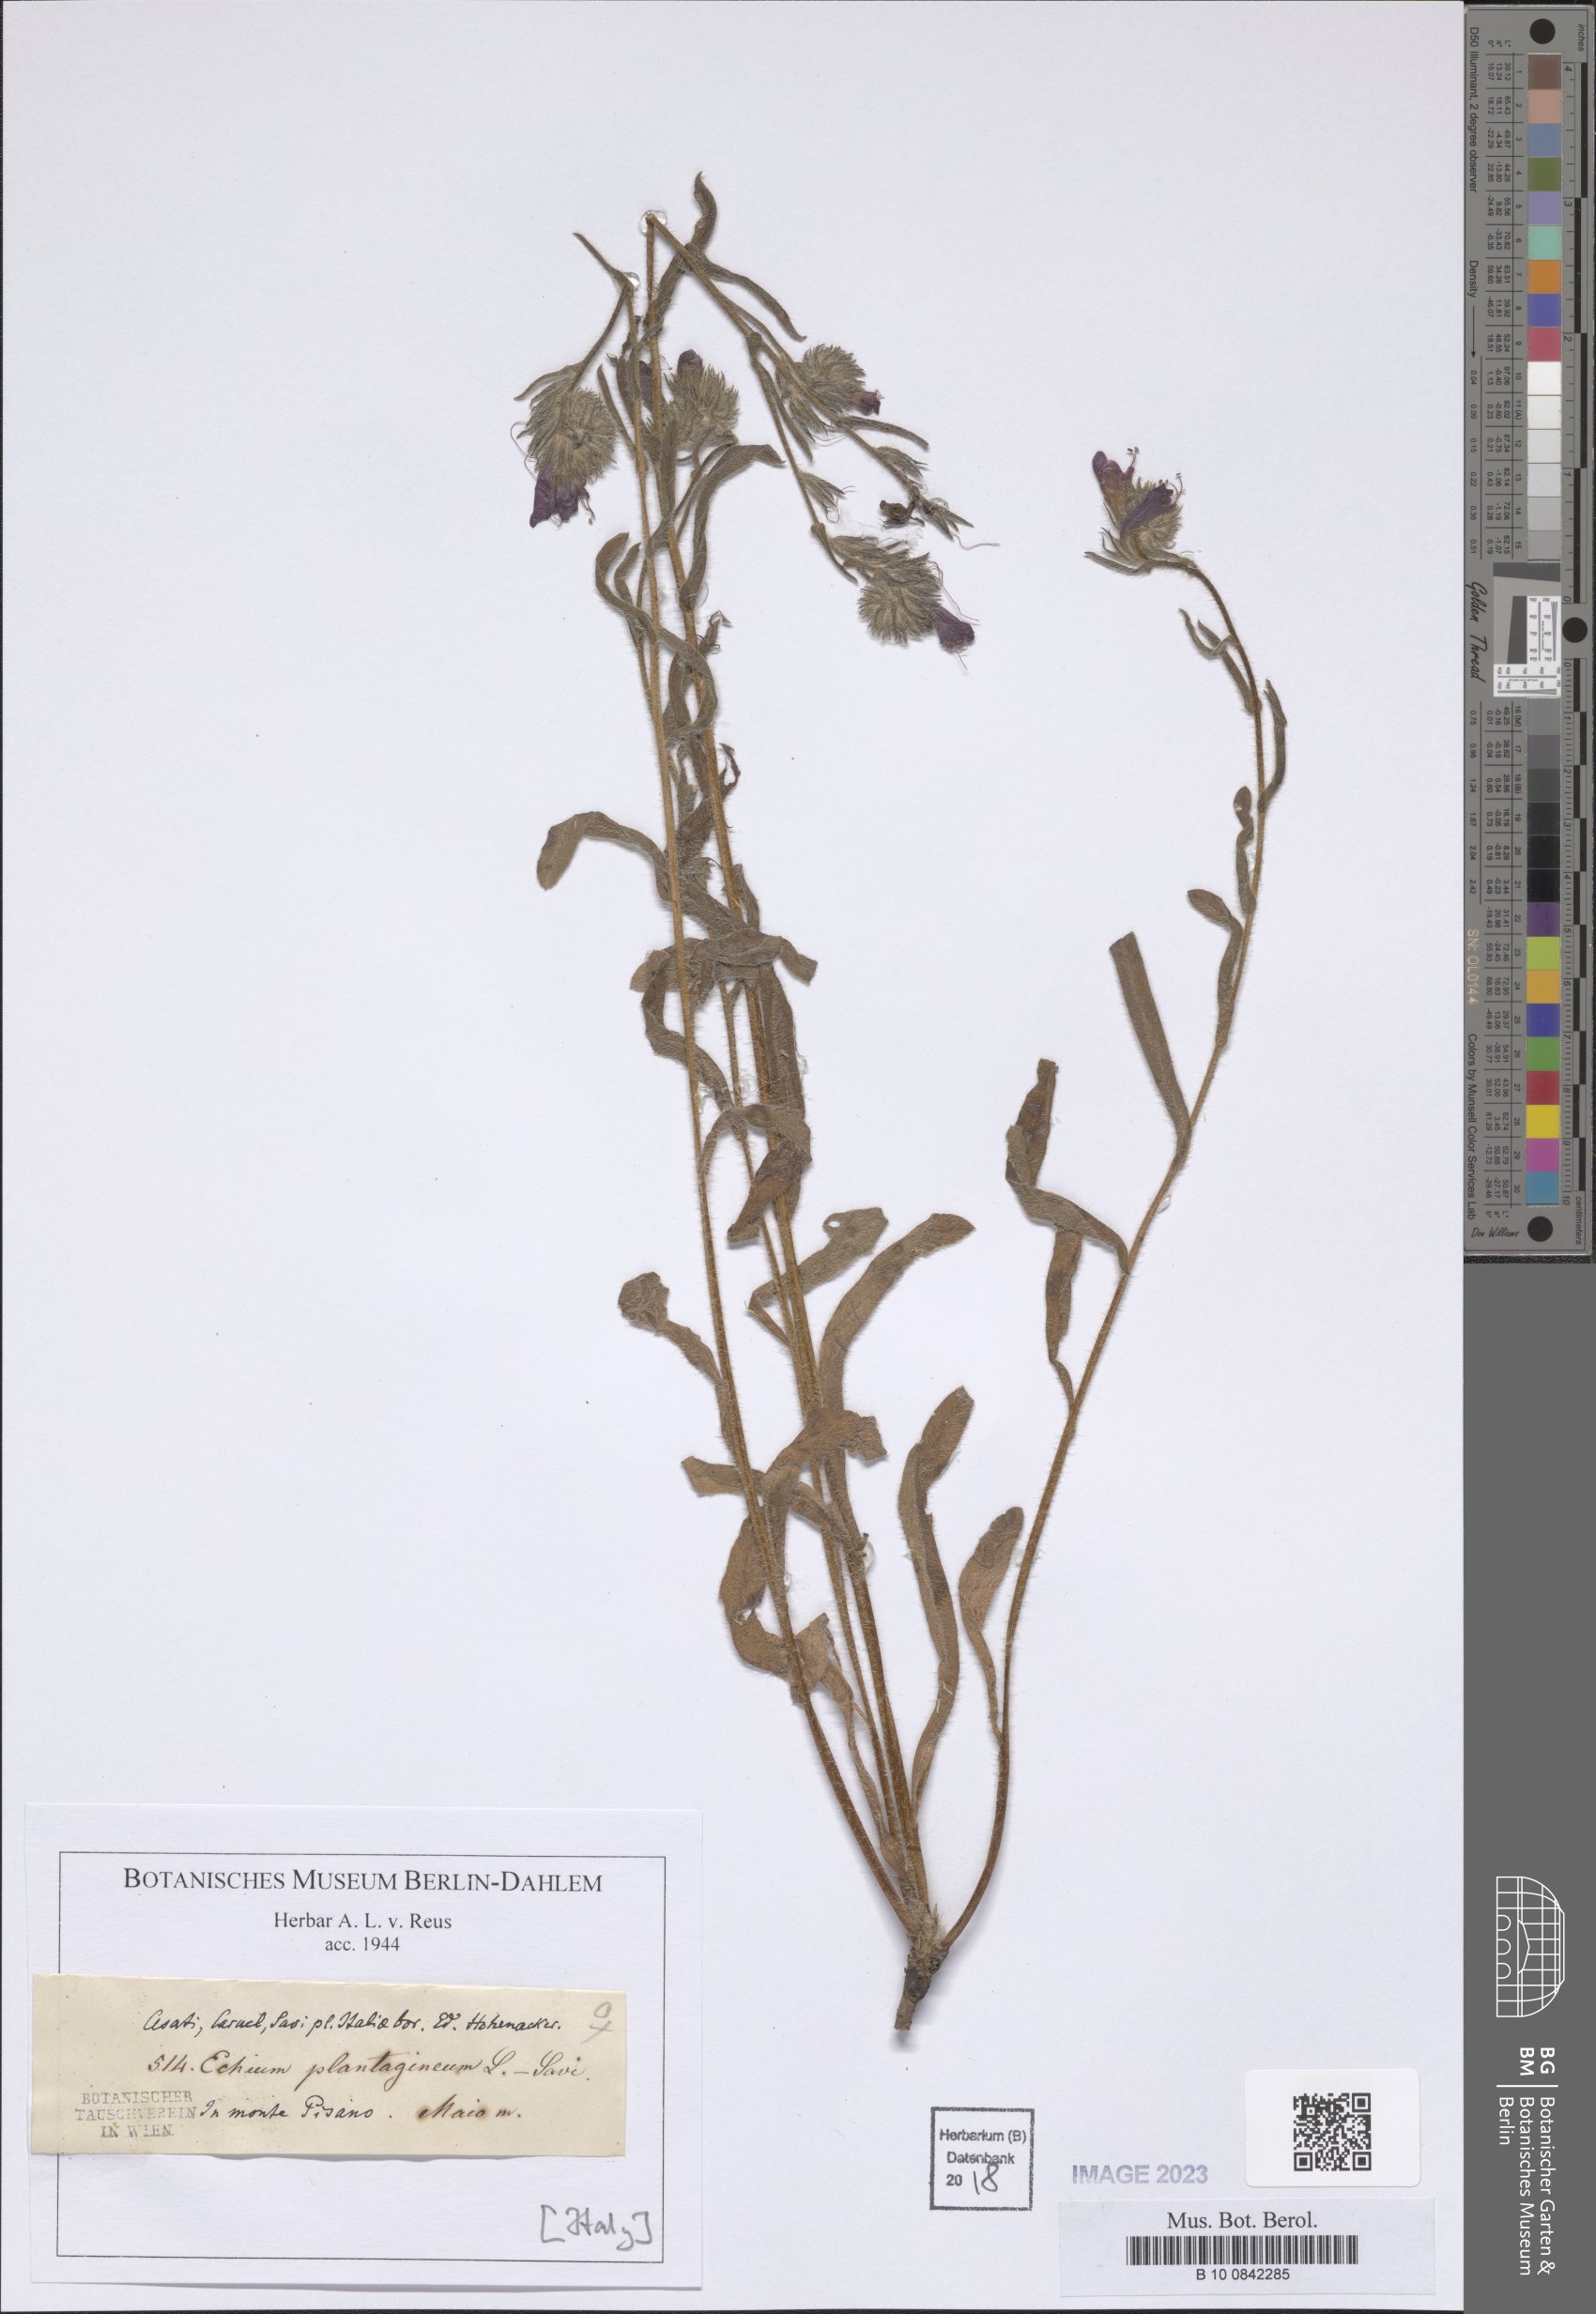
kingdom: Plantae
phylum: Tracheophyta
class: Magnoliopsida
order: Boraginales
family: Boraginaceae
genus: Echium
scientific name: Echium plantagineum
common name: Purple viper's-bugloss
